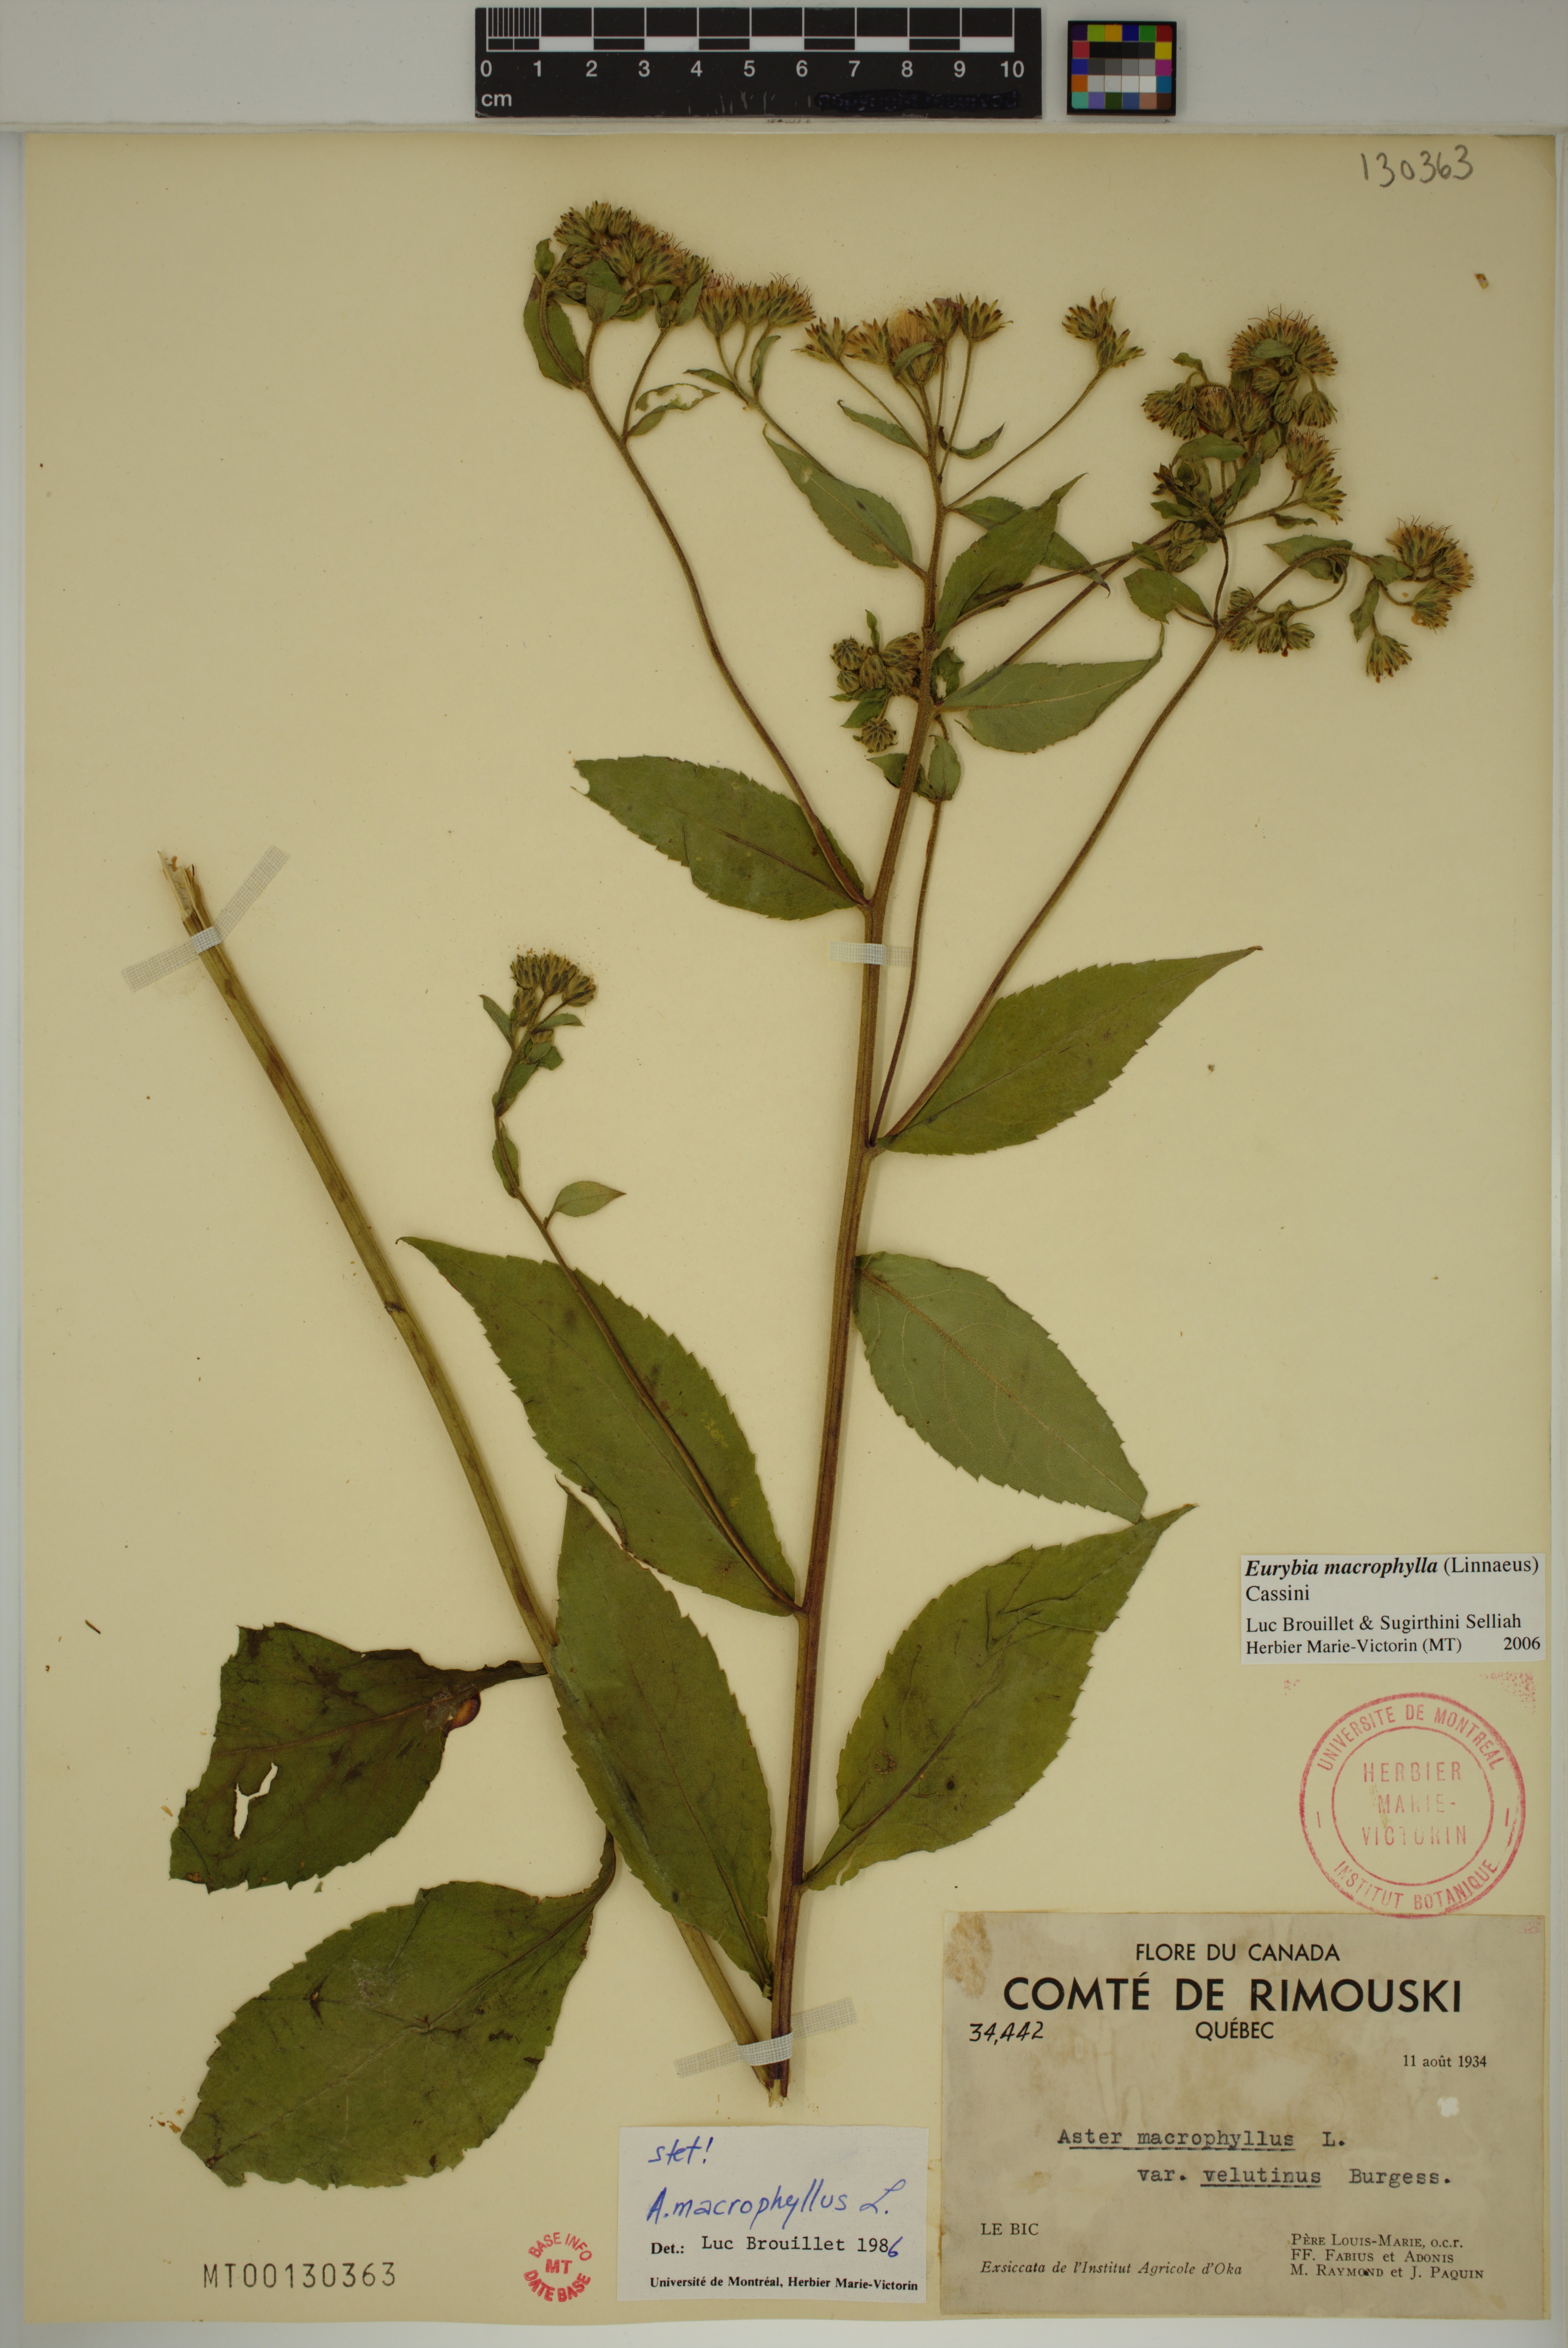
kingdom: Plantae
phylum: Tracheophyta
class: Magnoliopsida
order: Asterales
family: Asteraceae
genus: Eurybia
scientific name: Eurybia macrophylla
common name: Big-leaved aster
